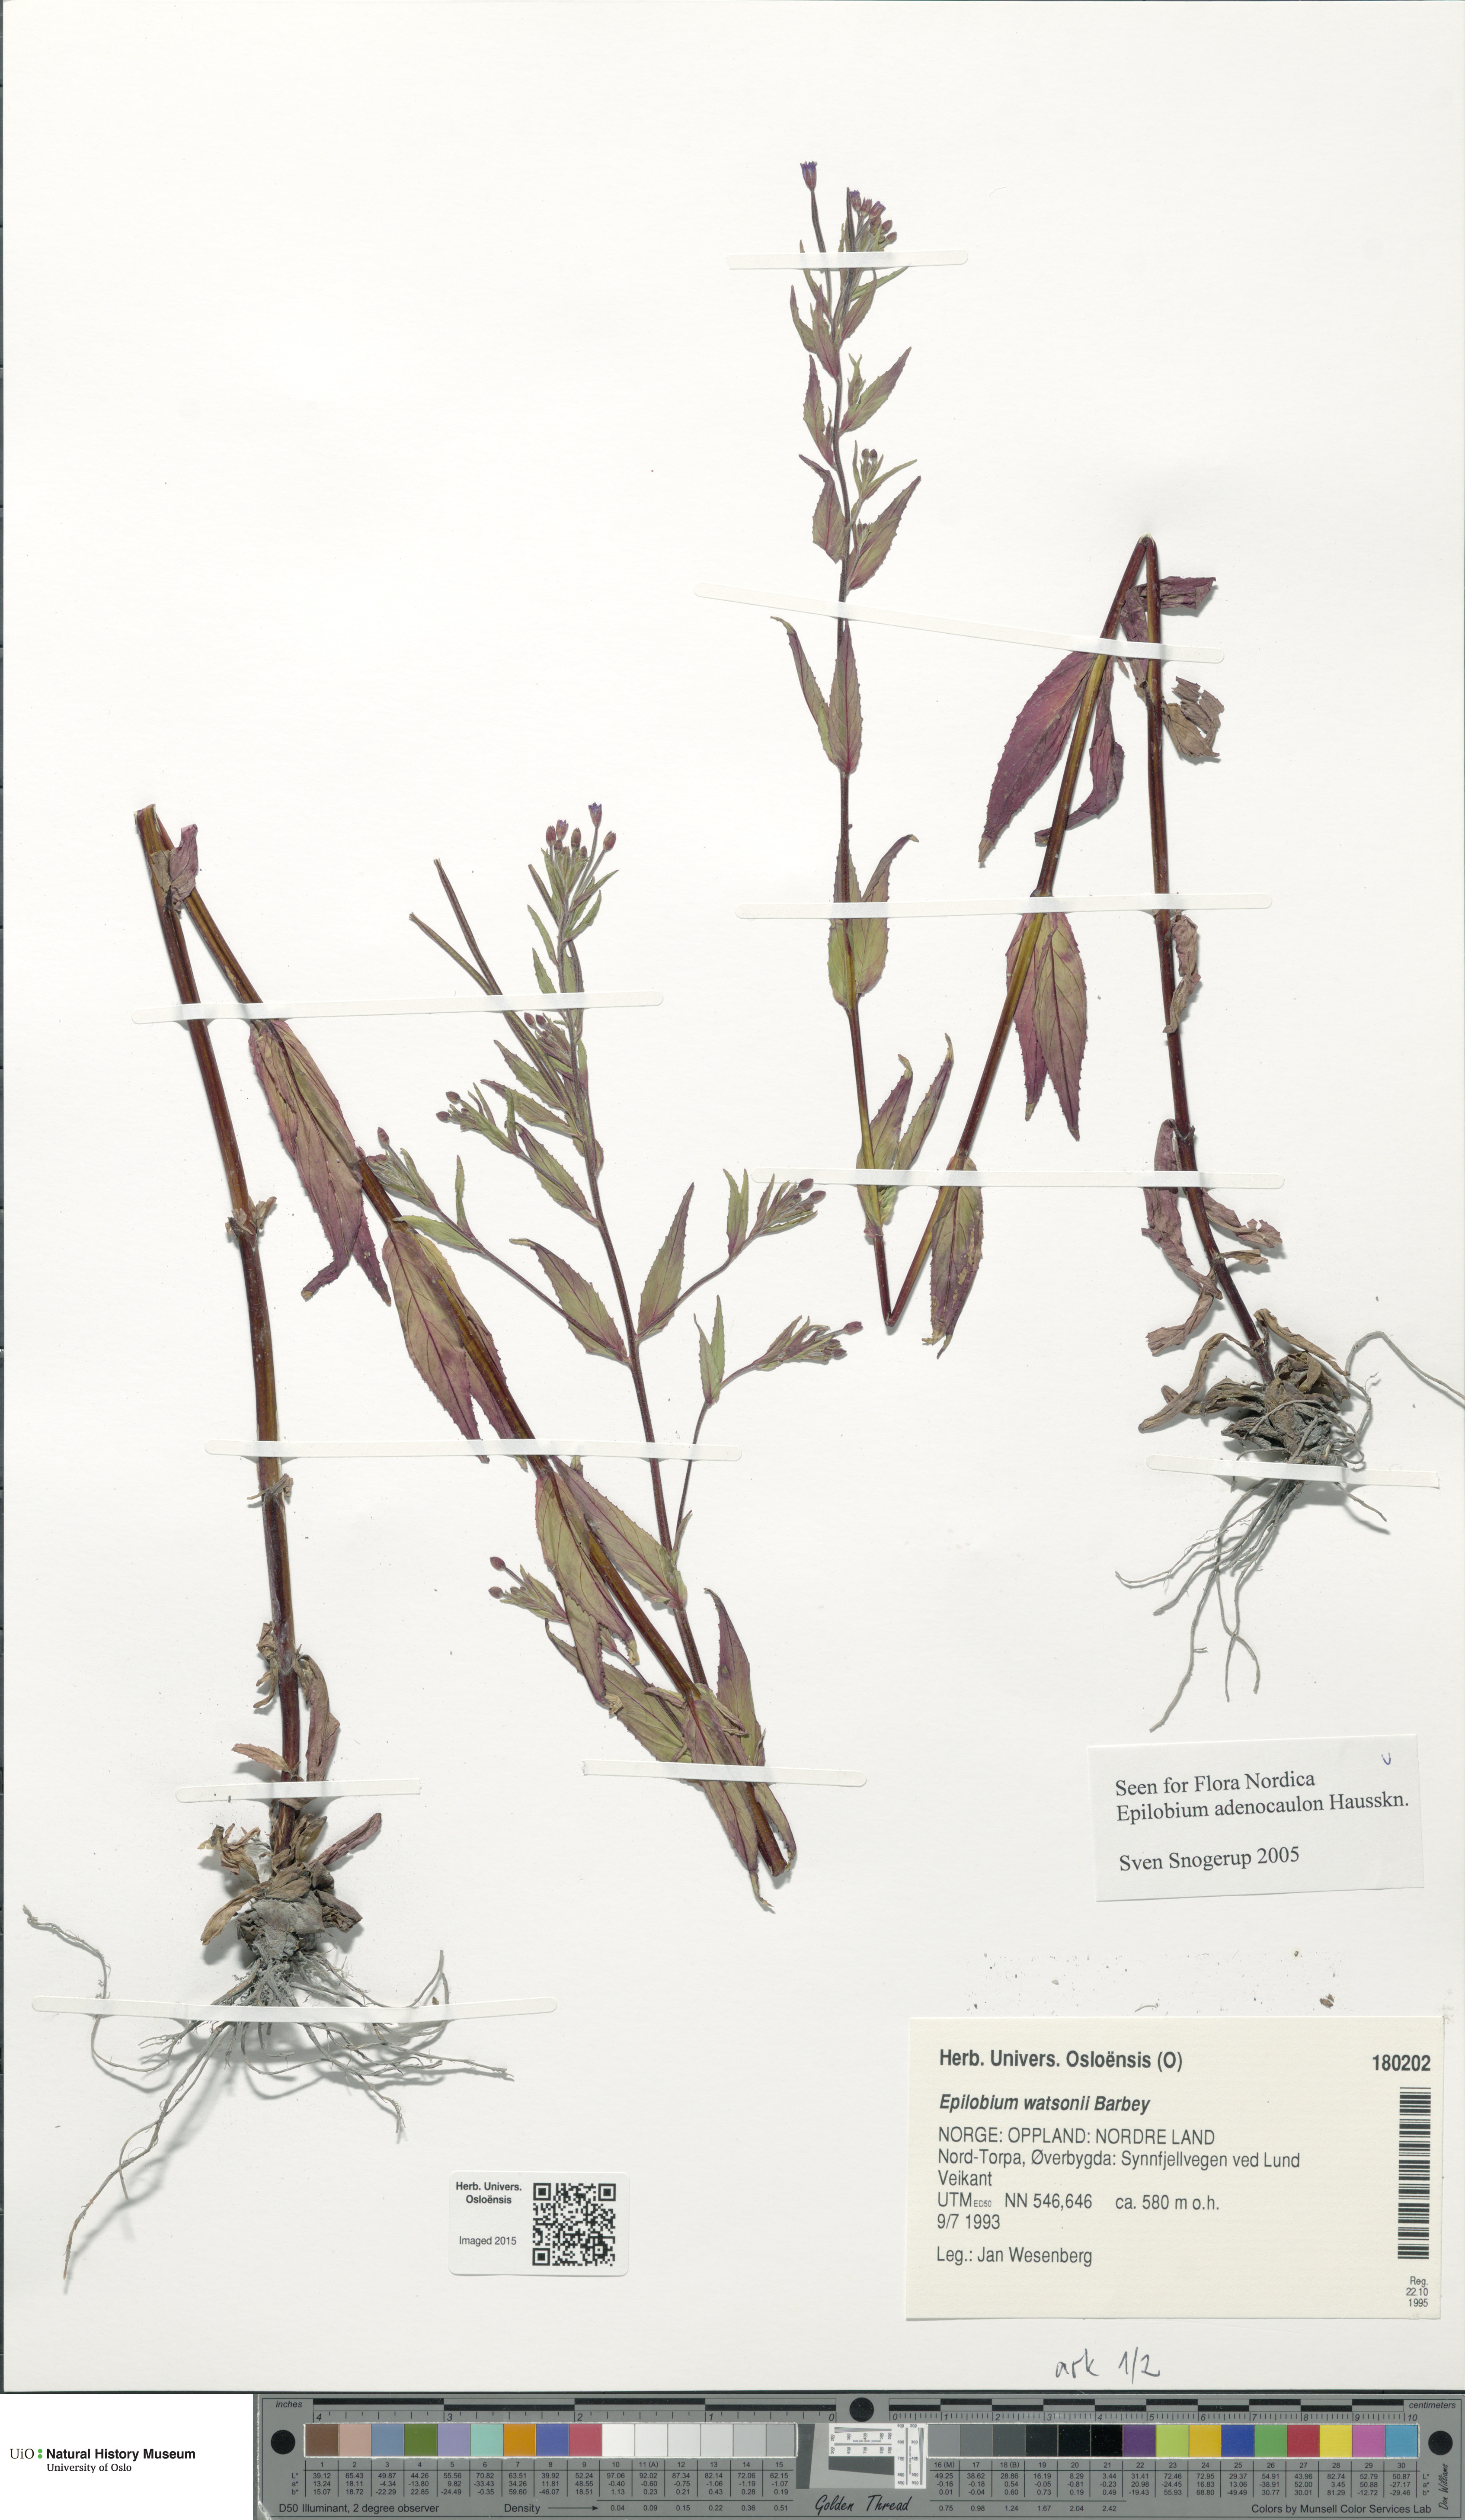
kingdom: Plantae
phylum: Tracheophyta
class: Magnoliopsida
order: Myrtales
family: Onagraceae
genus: Epilobium
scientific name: Epilobium ciliatum
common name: American willowherb
